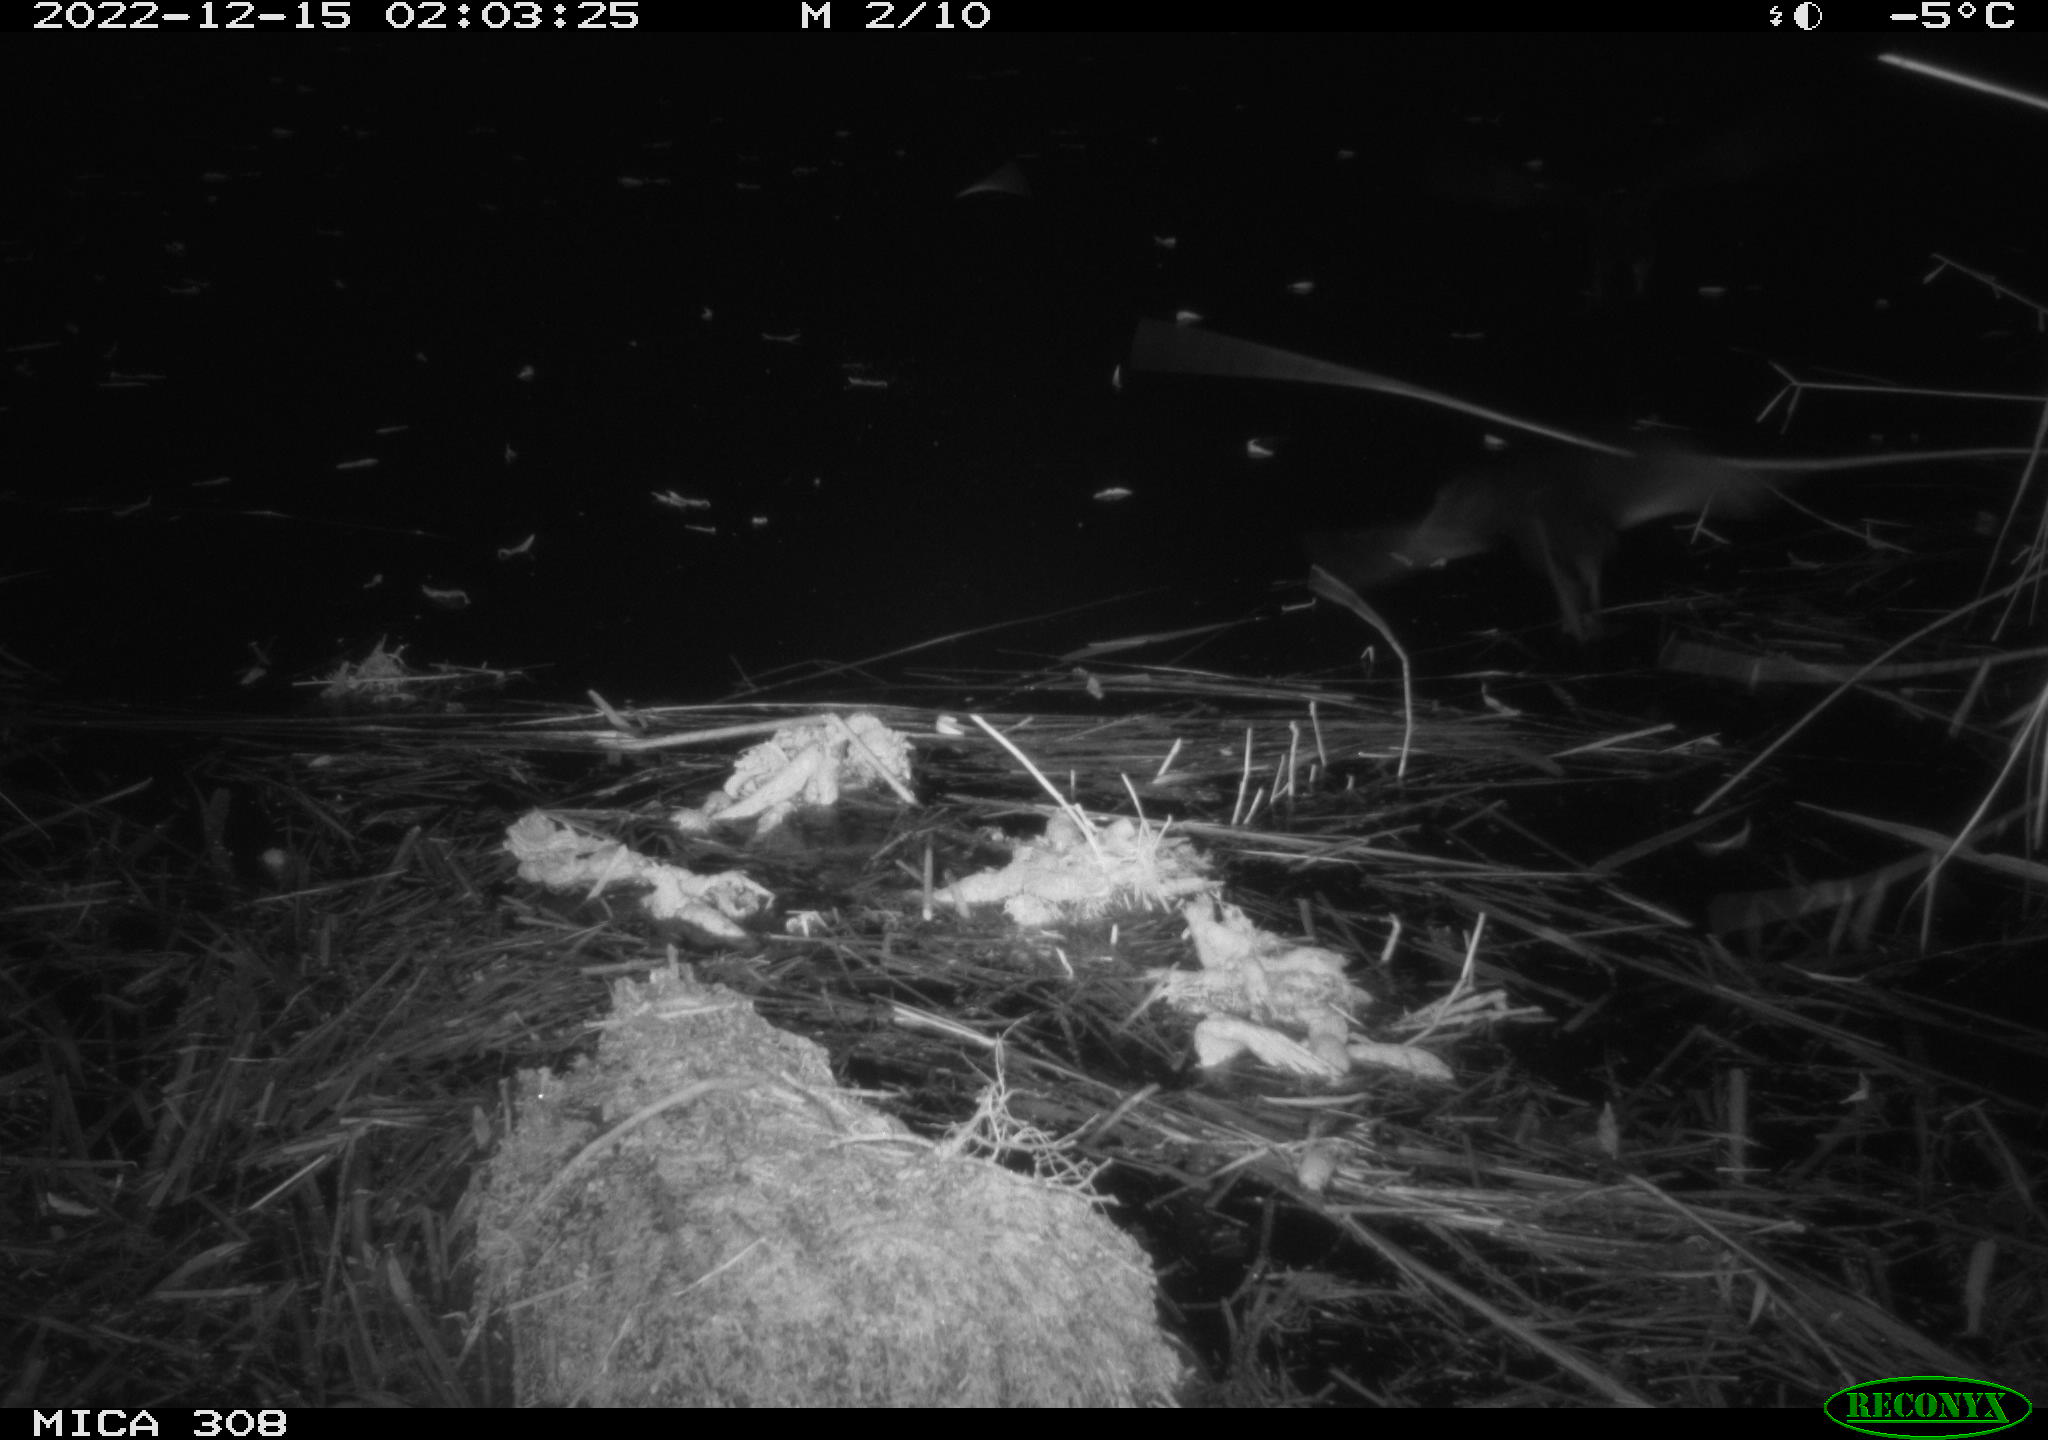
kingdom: Animalia
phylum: Chordata
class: Mammalia
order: Rodentia
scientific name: Rodentia
